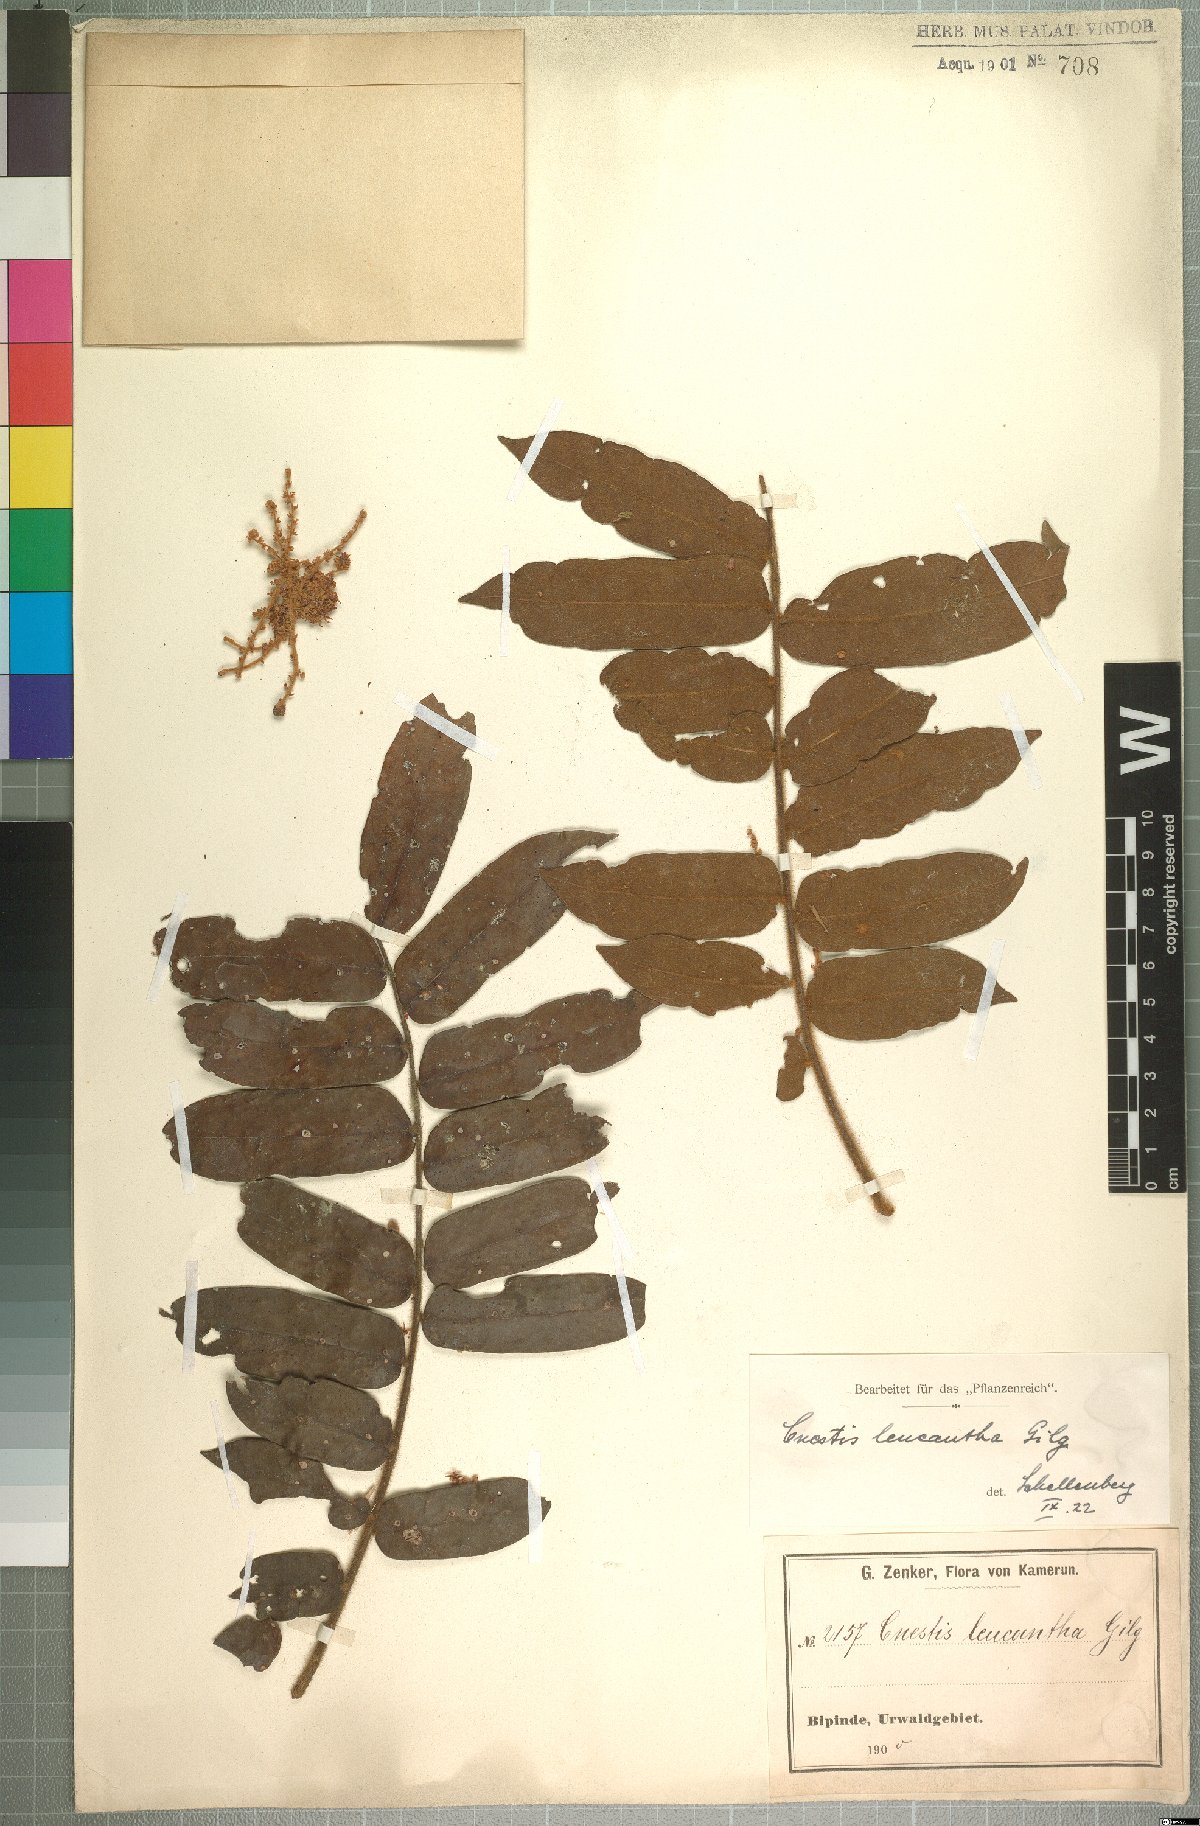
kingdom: Plantae
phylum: Tracheophyta
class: Magnoliopsida
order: Oxalidales
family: Connaraceae
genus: Cnestis
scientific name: Cnestis corniculata
